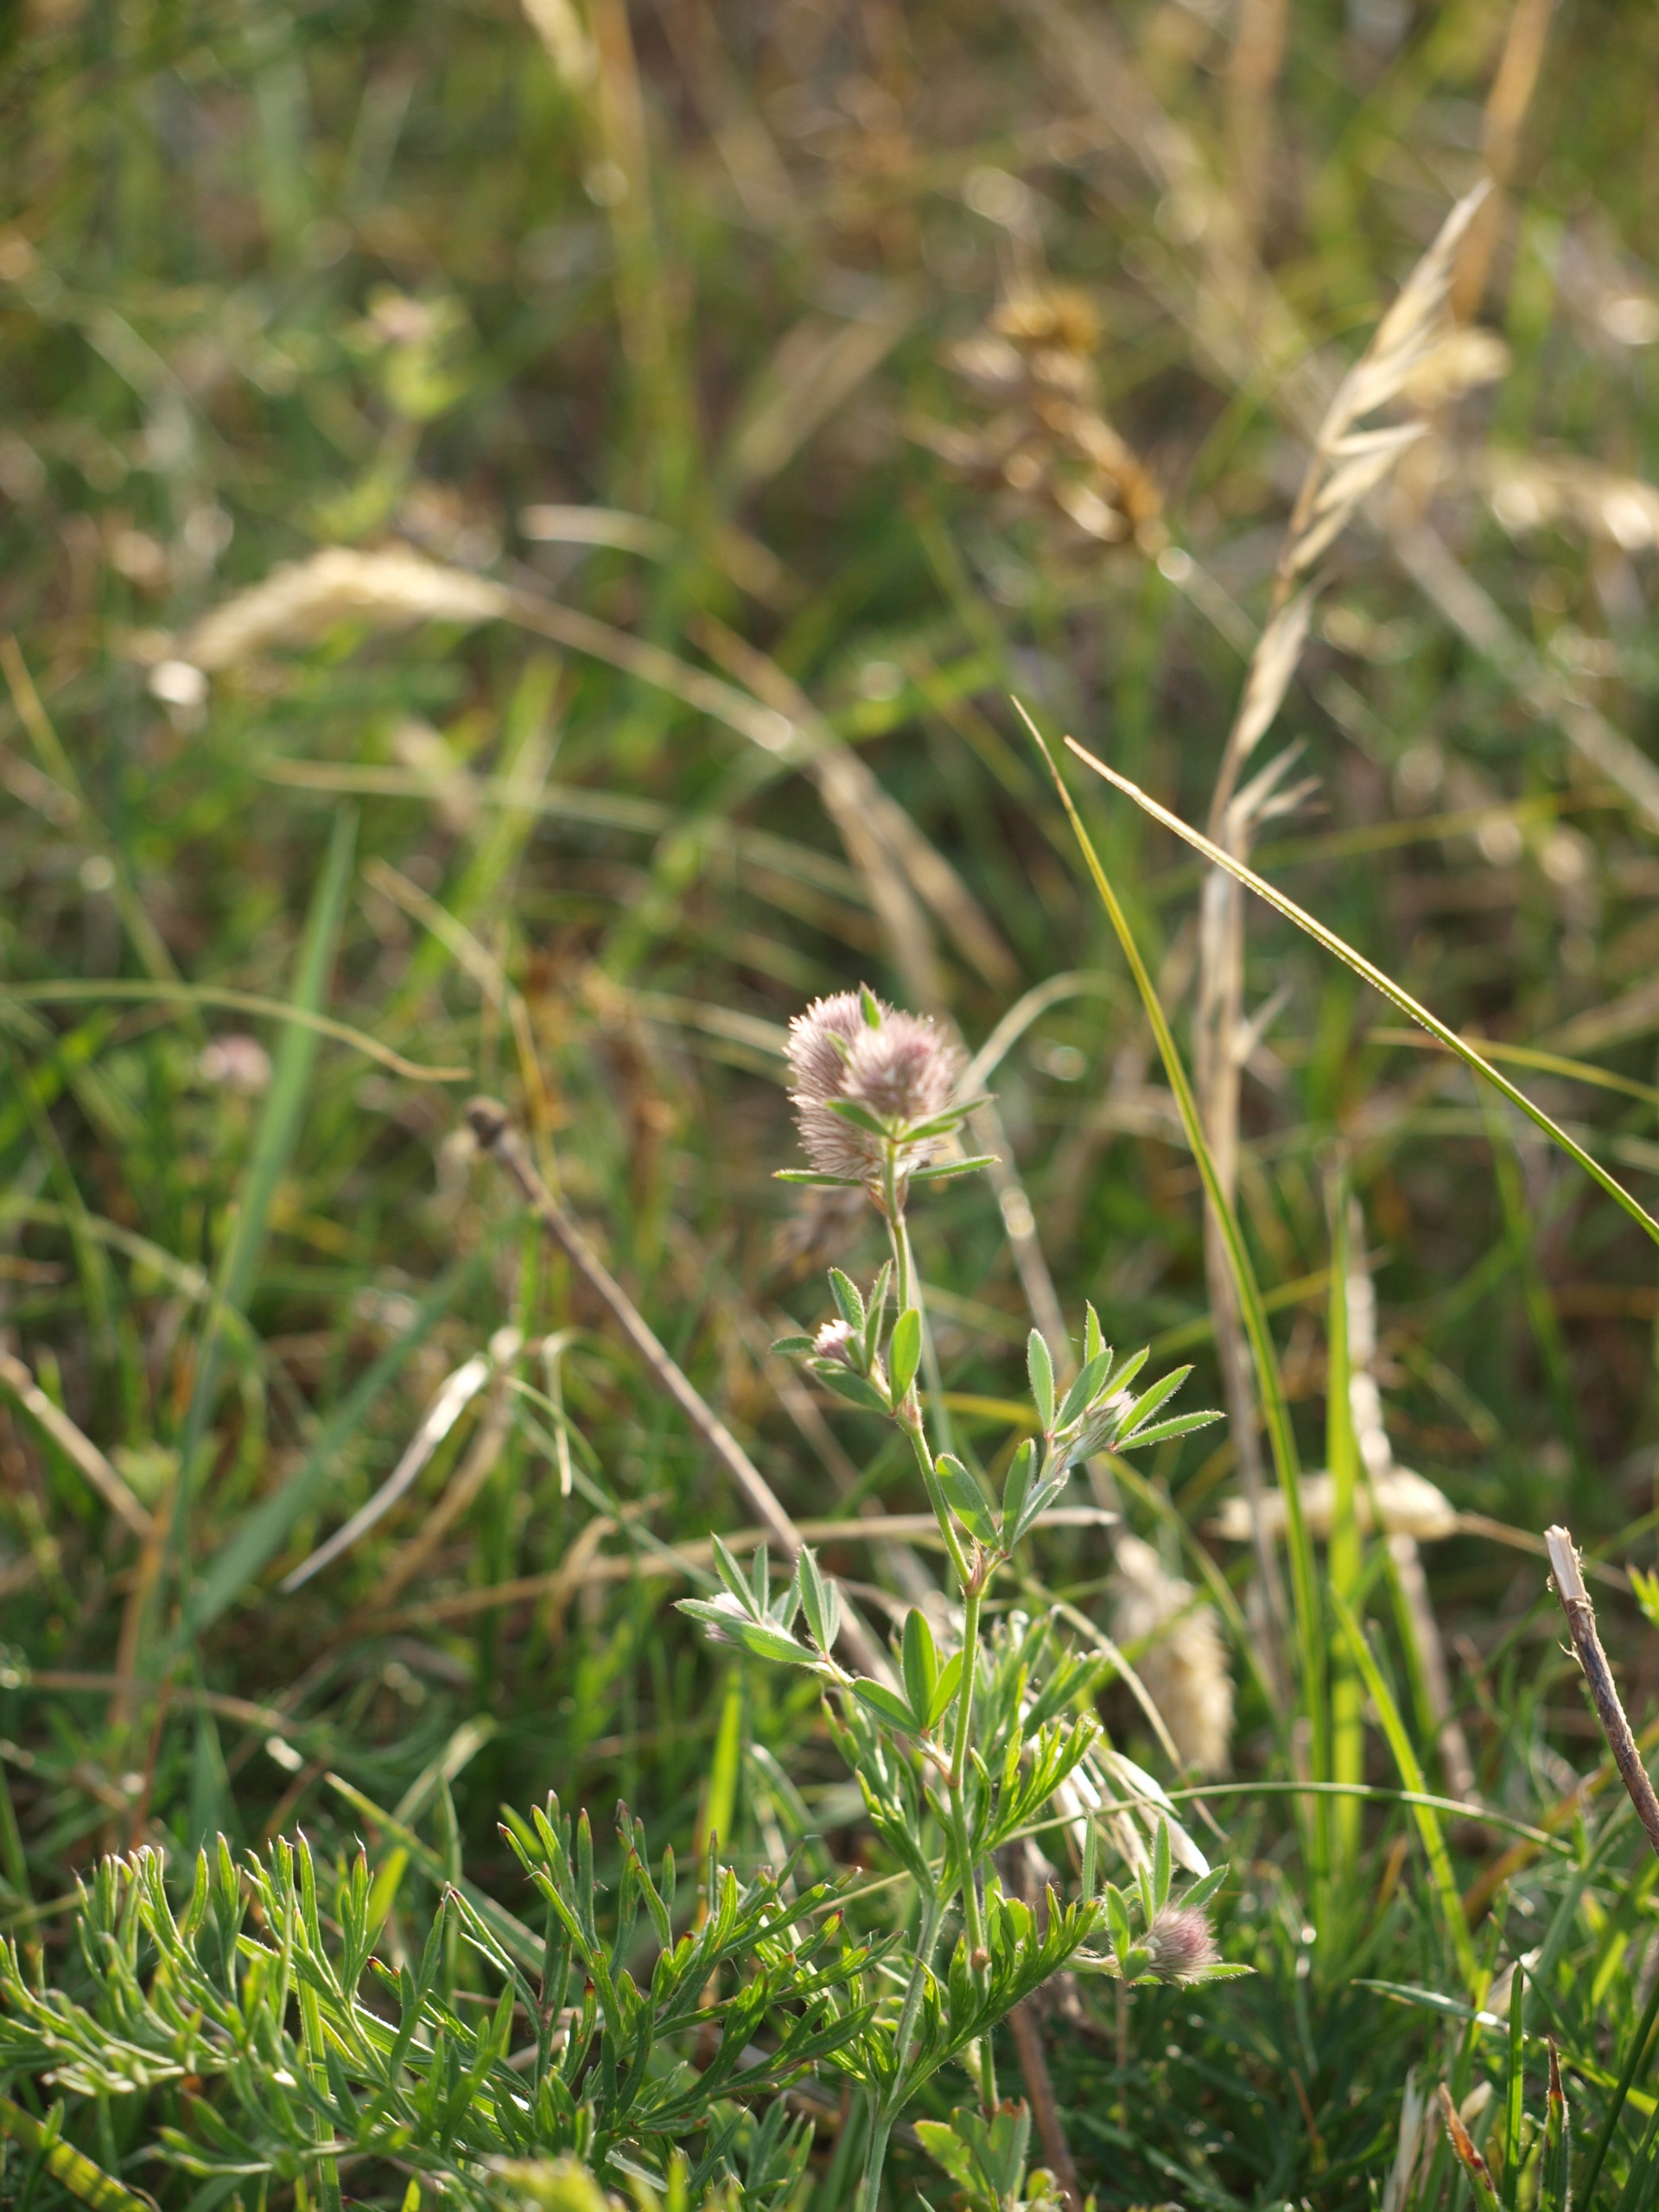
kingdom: Plantae
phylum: Tracheophyta
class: Magnoliopsida
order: Fabales
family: Fabaceae
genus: Trifolium
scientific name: Trifolium arvense
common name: Hare-kløver
